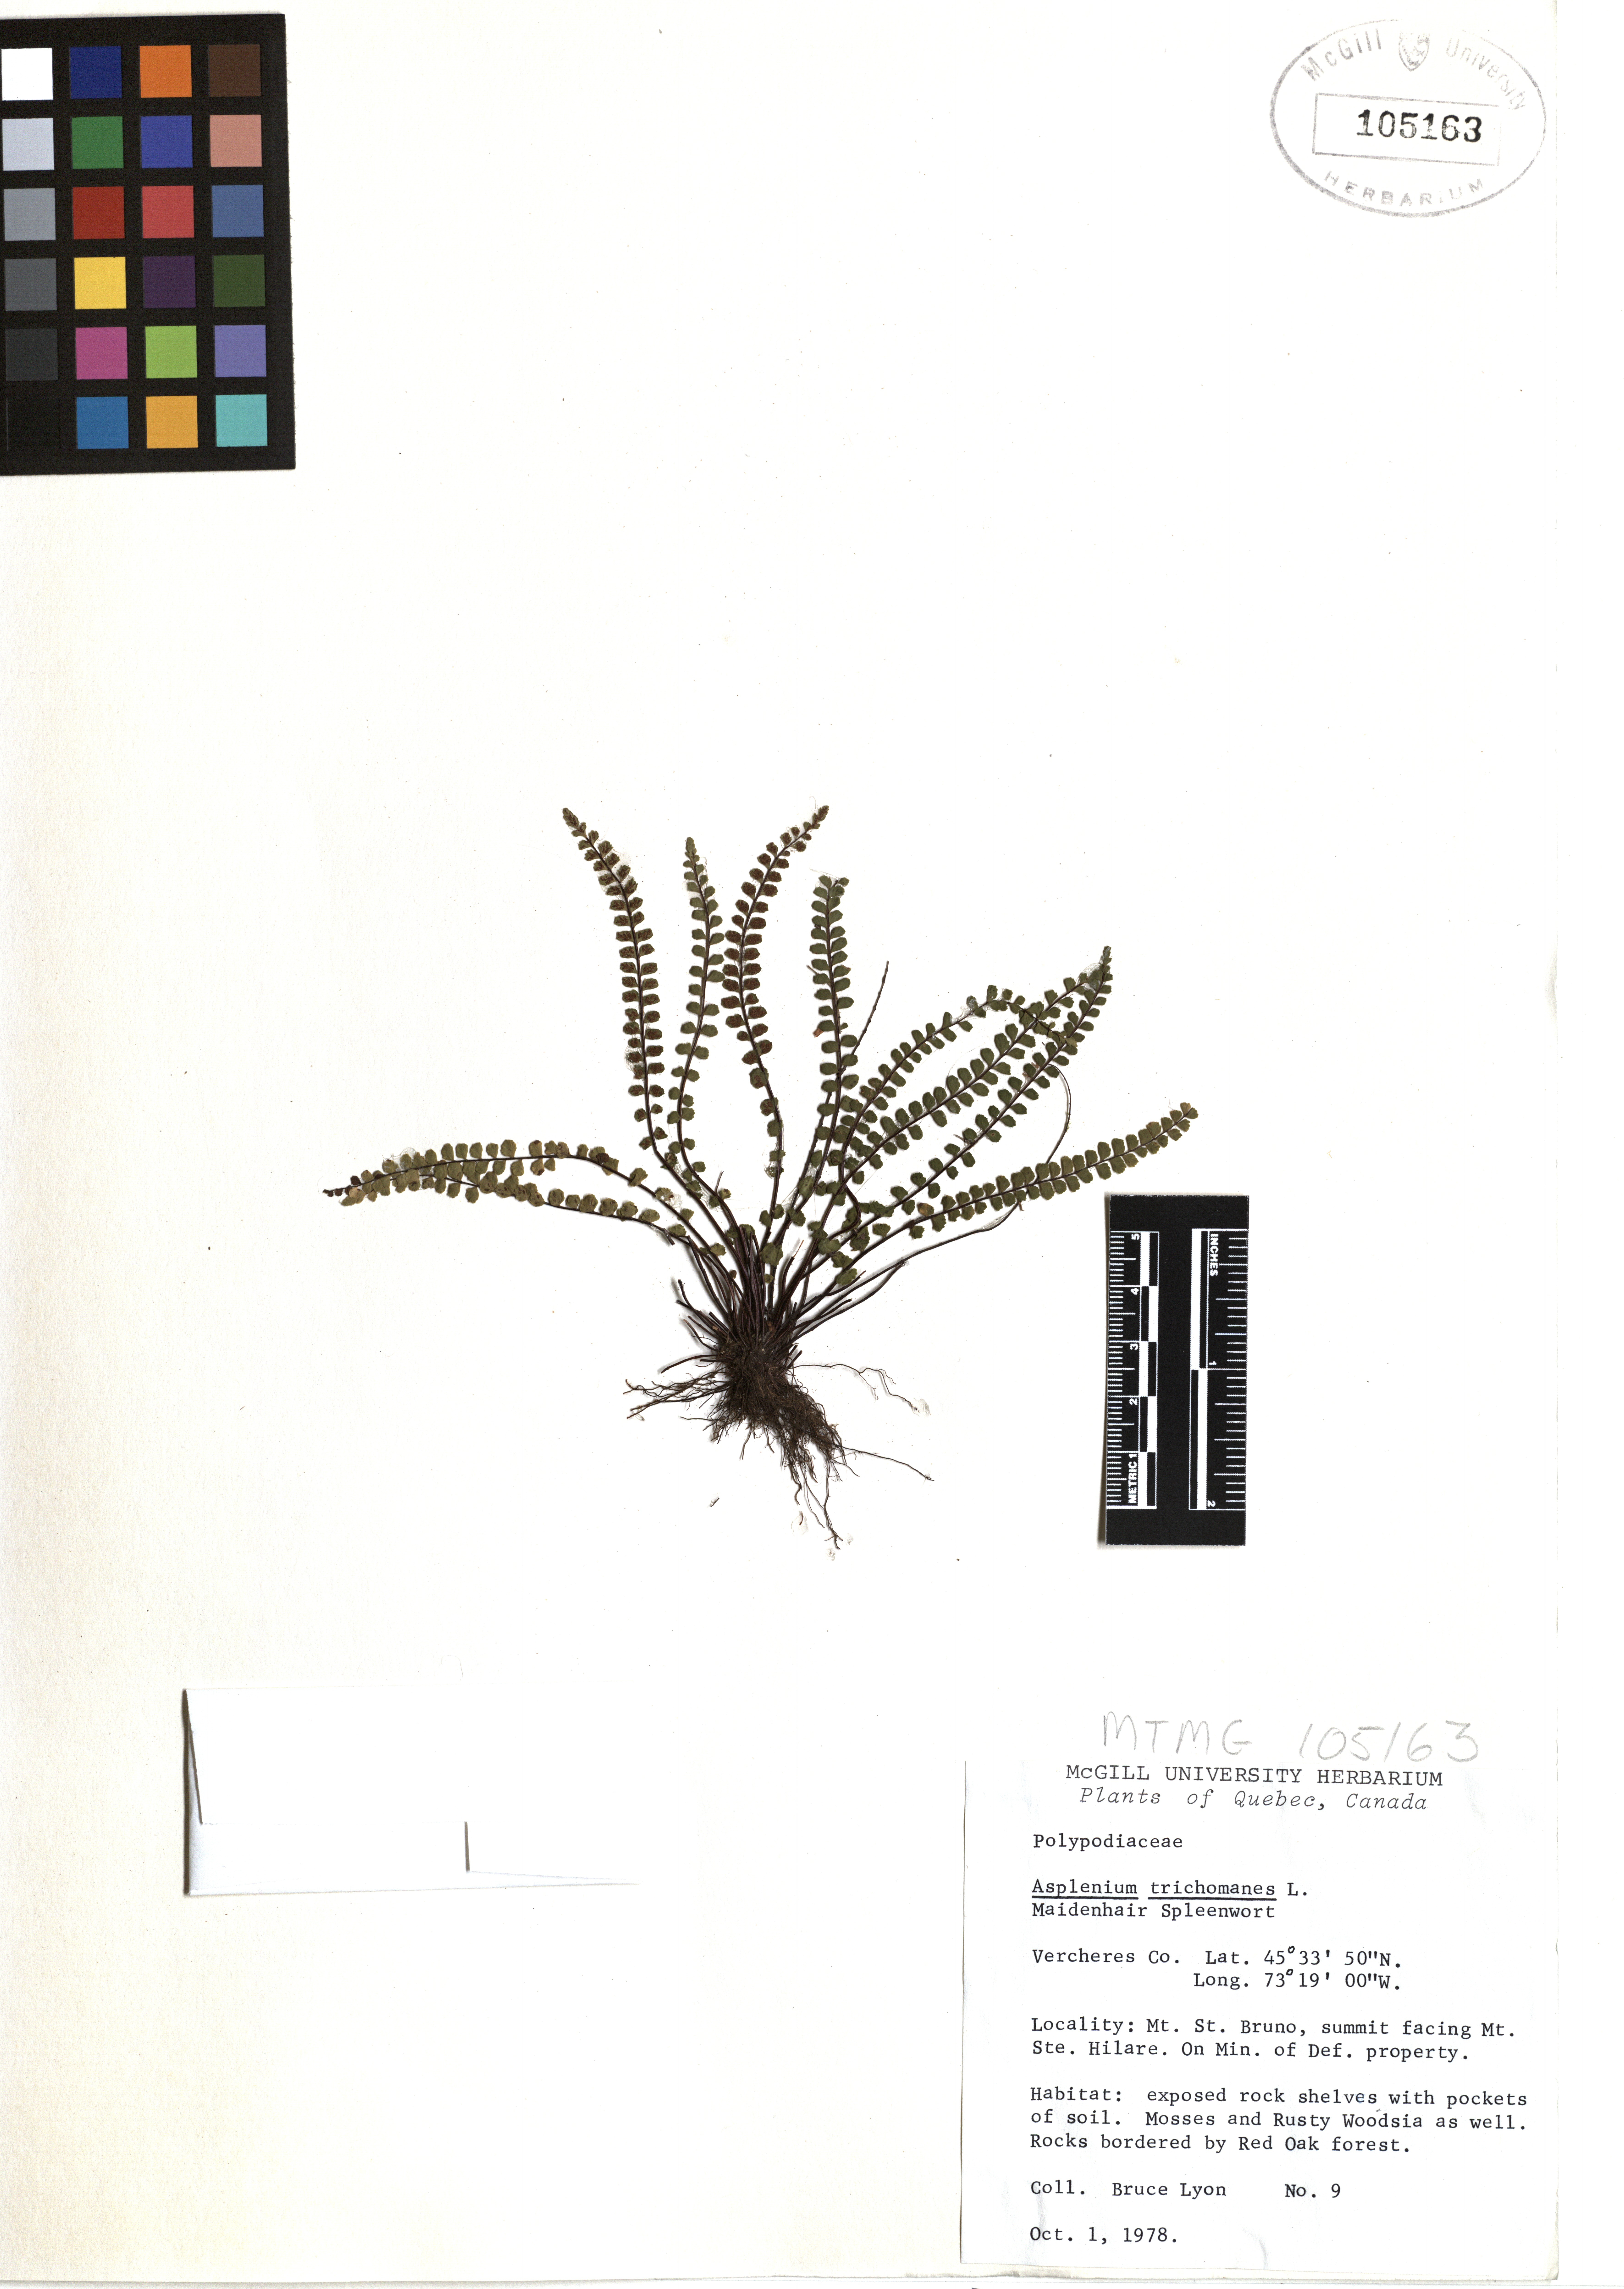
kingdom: Plantae
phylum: Tracheophyta
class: Polypodiopsida
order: Polypodiales
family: Aspleniaceae
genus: Asplenium
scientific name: Asplenium trichomanes
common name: Maidenhair spleenwort
